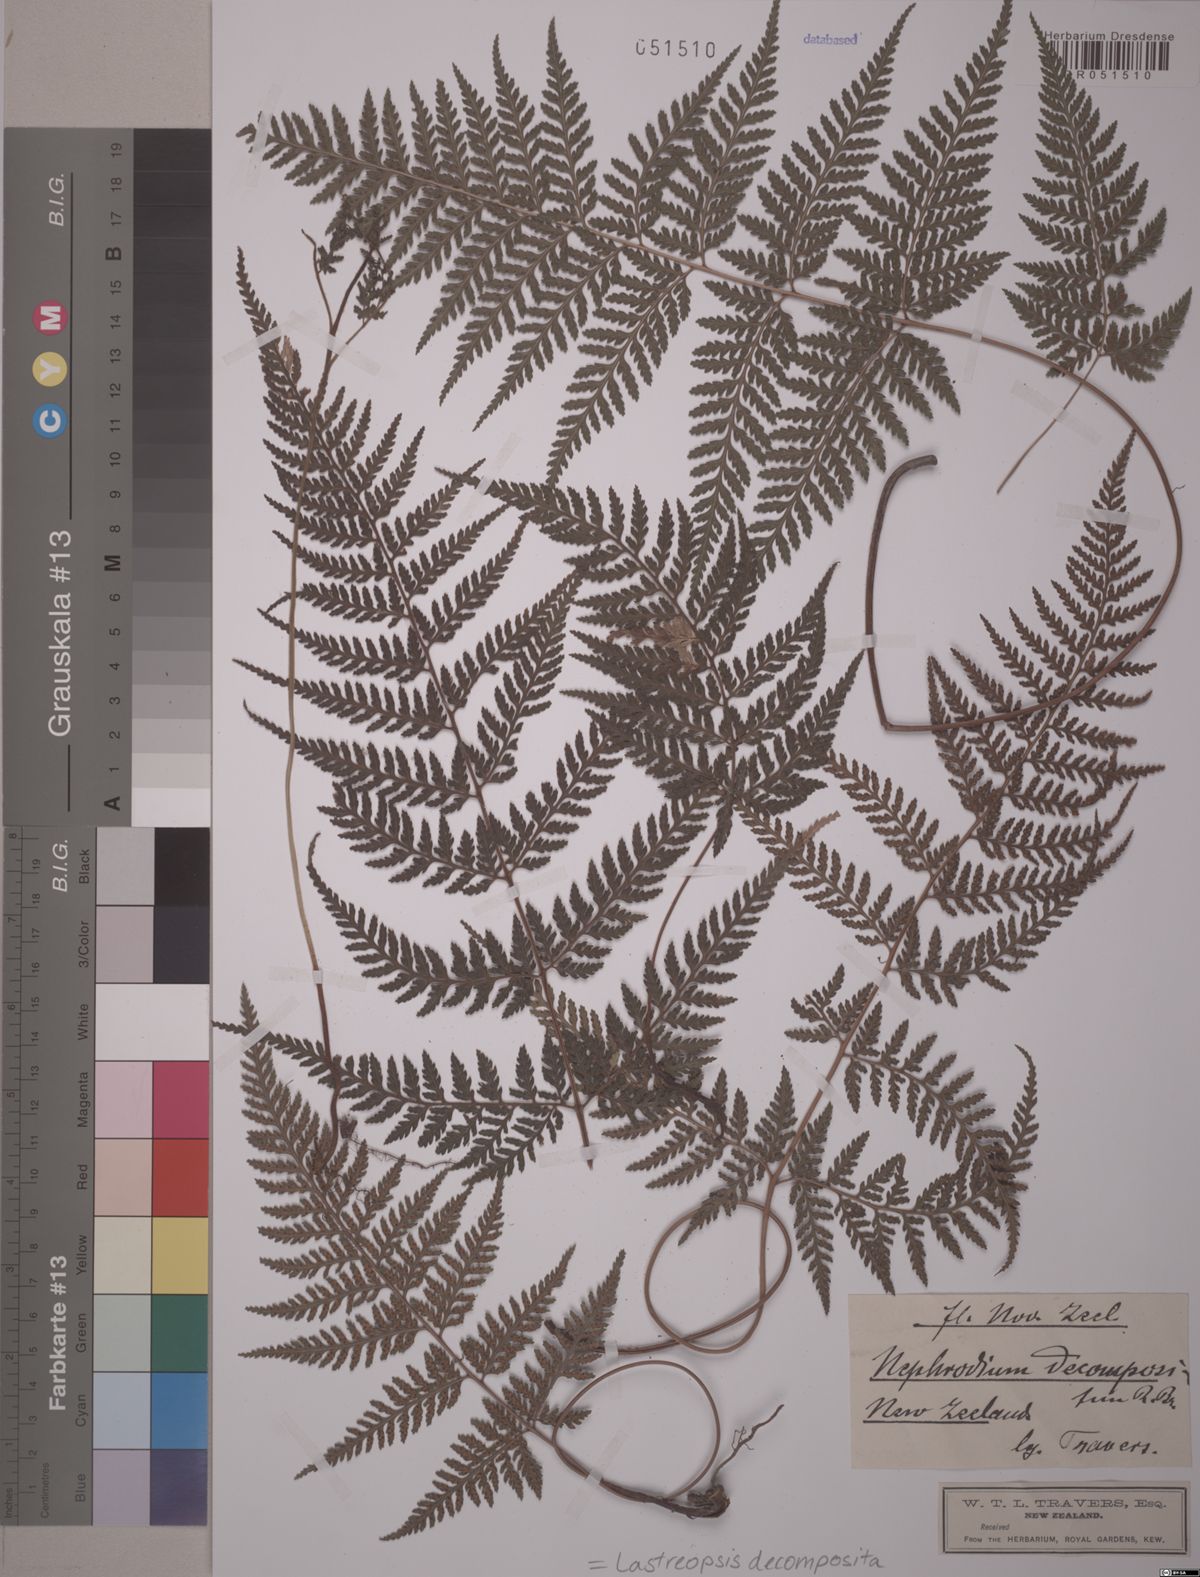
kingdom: Plantae
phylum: Tracheophyta
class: Polypodiopsida
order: Polypodiales
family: Dryopteridaceae
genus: Lastreopsis
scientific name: Lastreopsis decomposita
